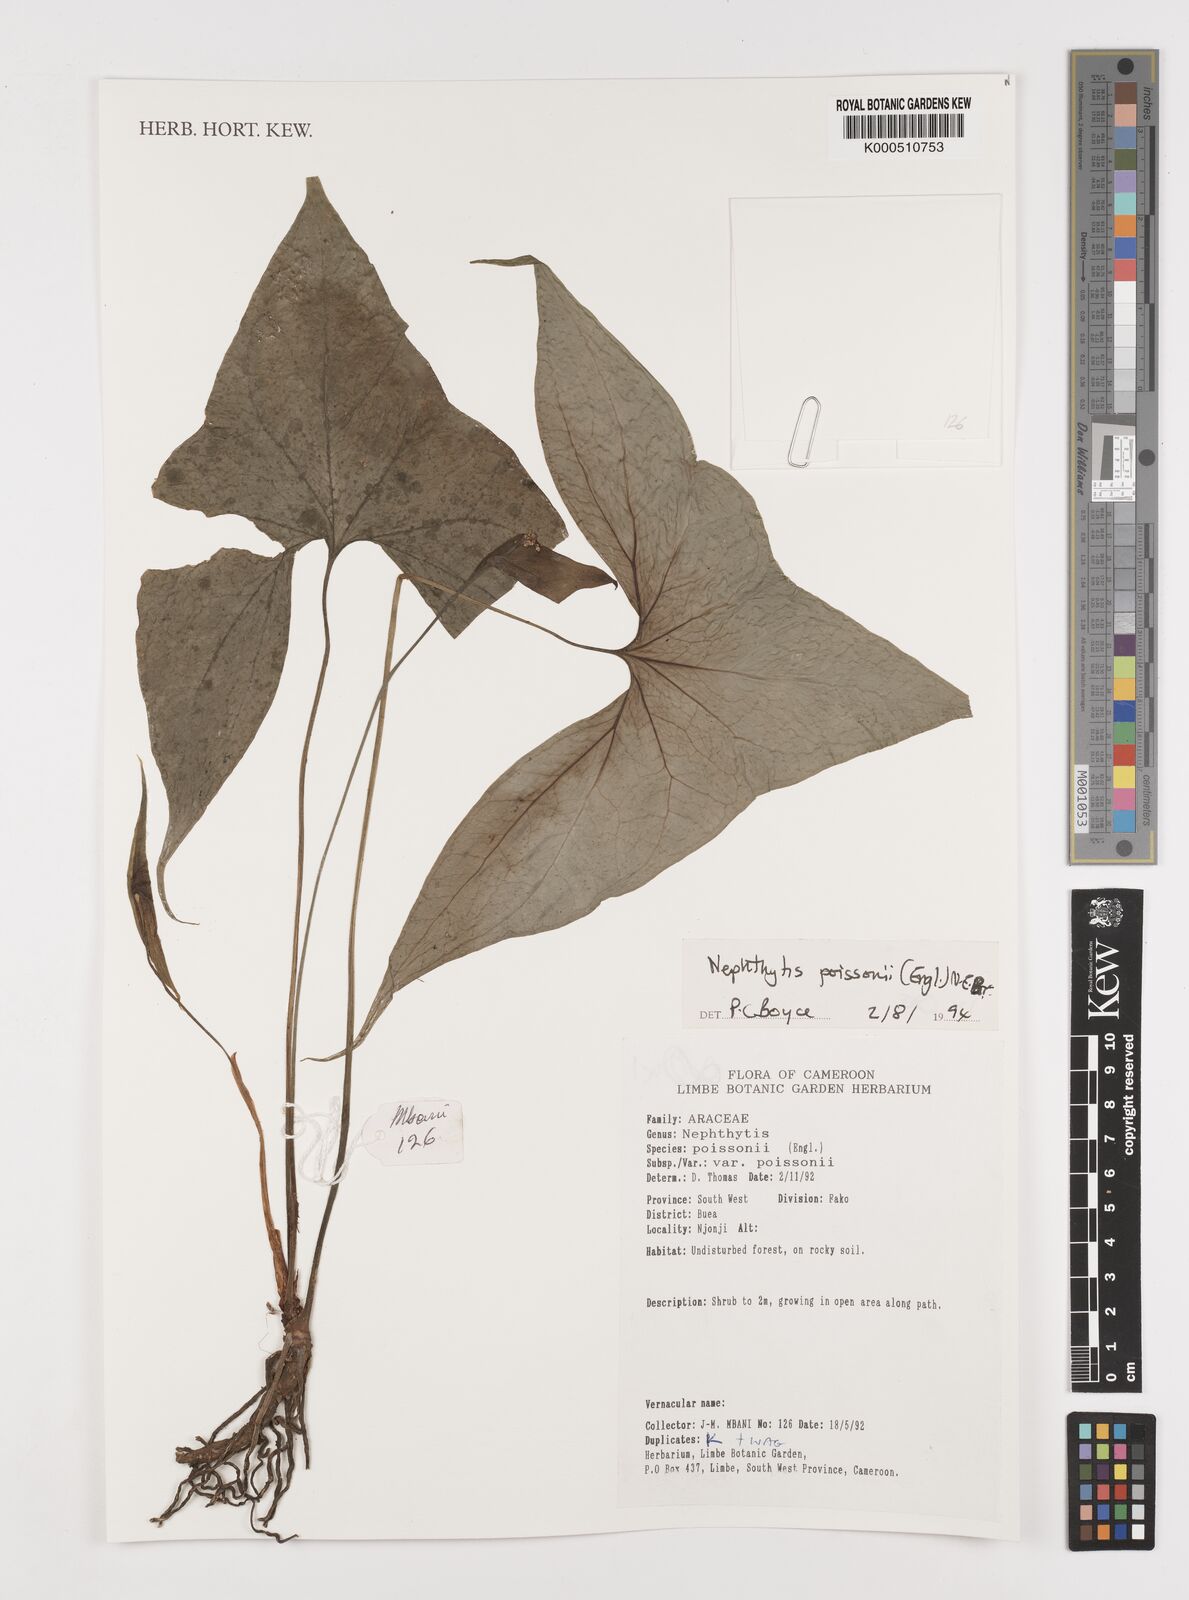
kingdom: Plantae
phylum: Tracheophyta
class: Liliopsida
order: Alismatales
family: Araceae
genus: Nephthytis
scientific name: Nephthytis poissonii
